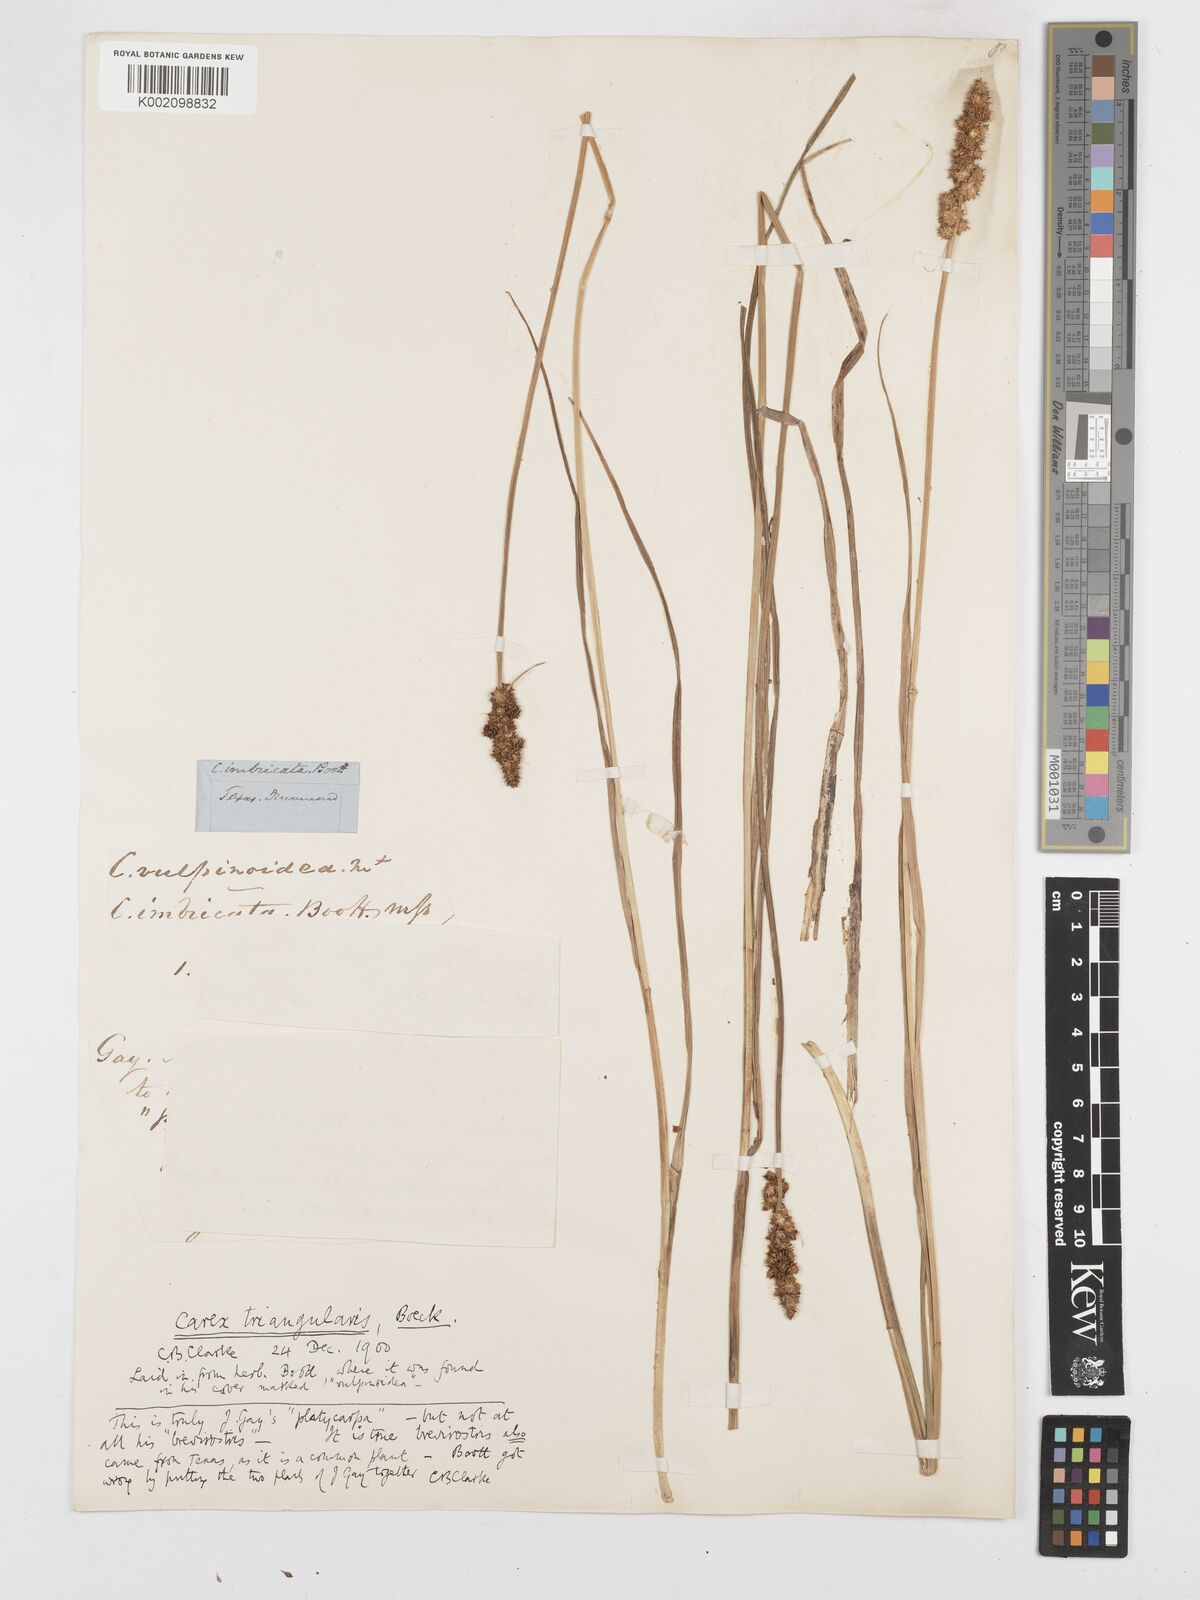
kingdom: Plantae
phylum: Tracheophyta
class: Liliopsida
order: Poales
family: Cyperaceae
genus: Carex
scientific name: Carex triangularis
